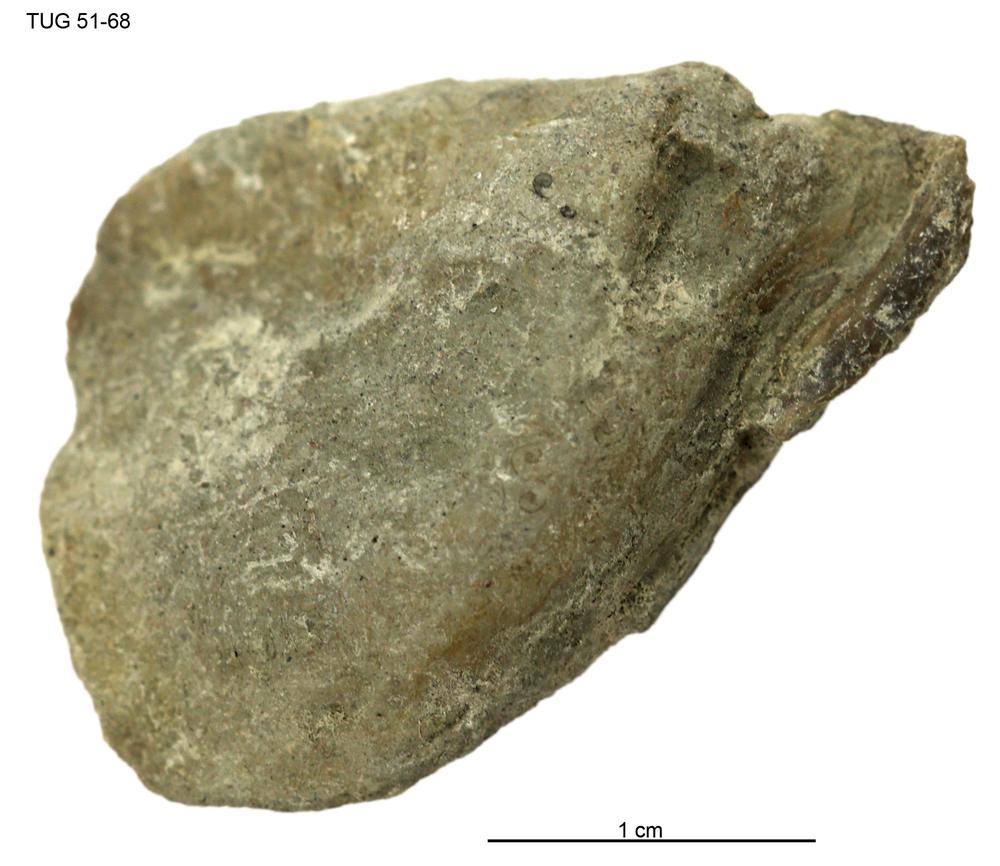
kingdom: Animalia
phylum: Mollusca
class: Bivalvia
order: Ostreida
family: Pterineidae
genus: Pterinea
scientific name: Pterinea
